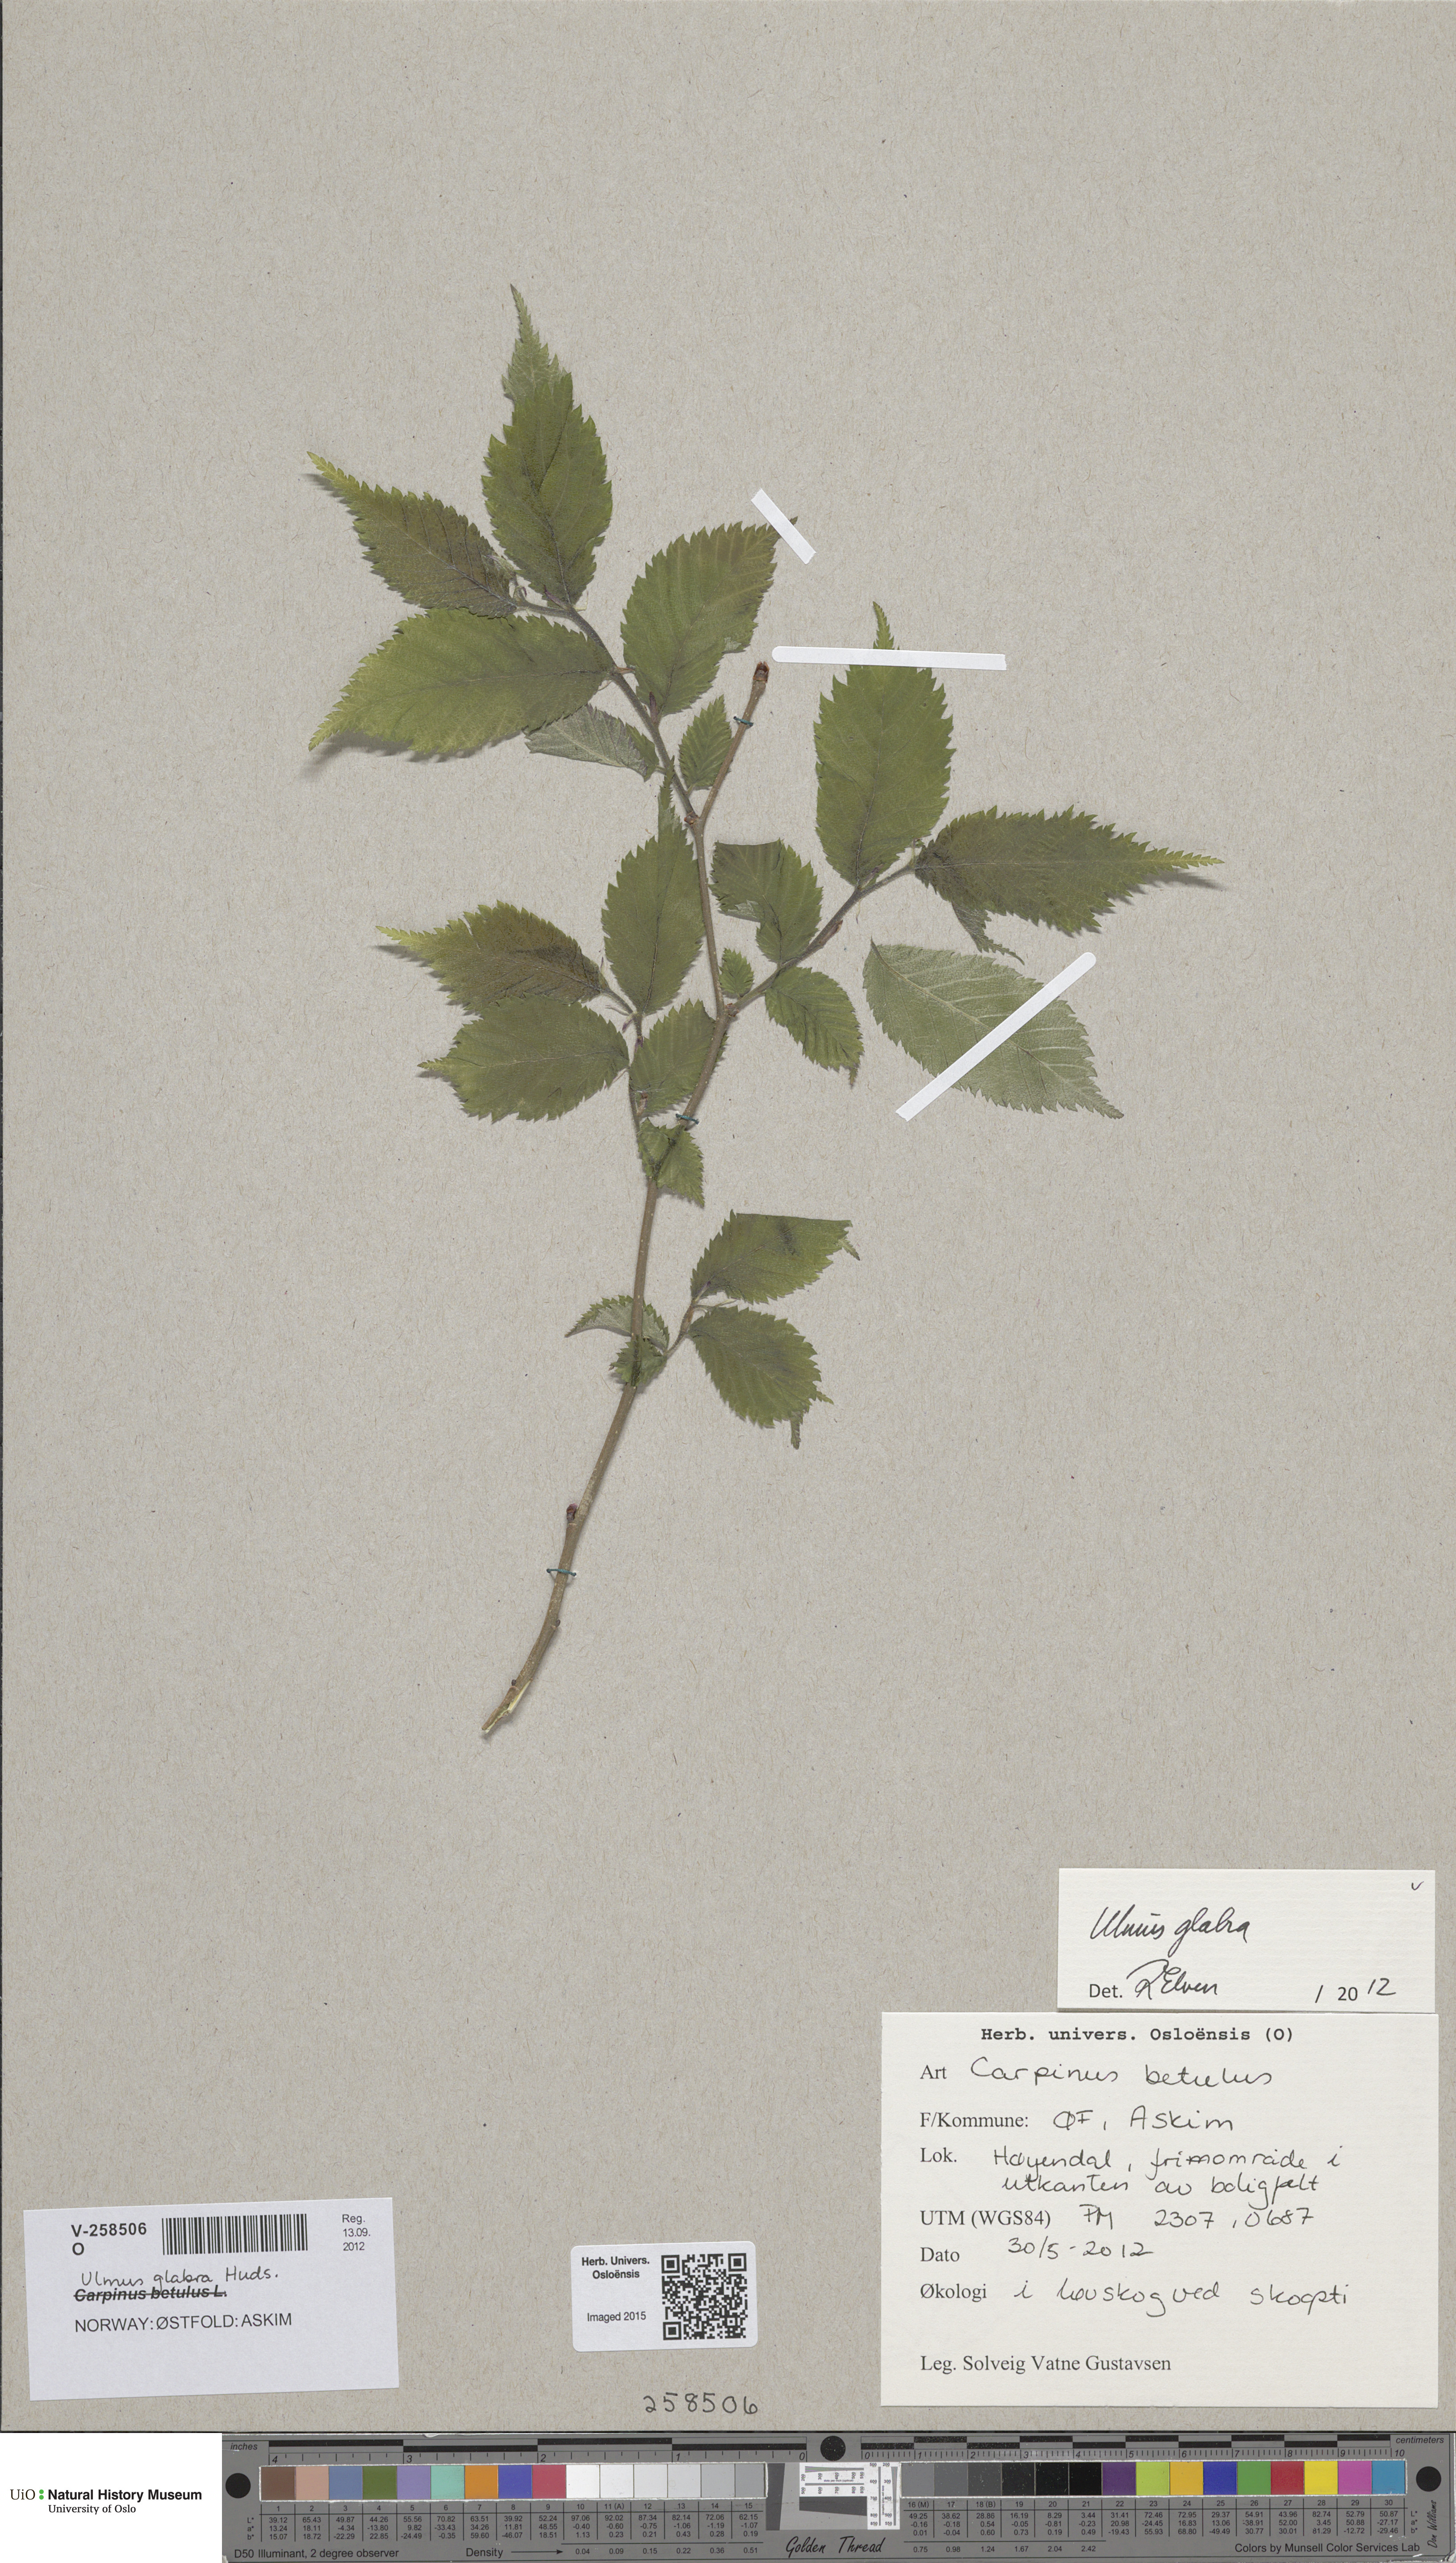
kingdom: Plantae
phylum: Tracheophyta
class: Magnoliopsida
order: Rosales
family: Ulmaceae
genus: Ulmus
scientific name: Ulmus glabra
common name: Wych elm
